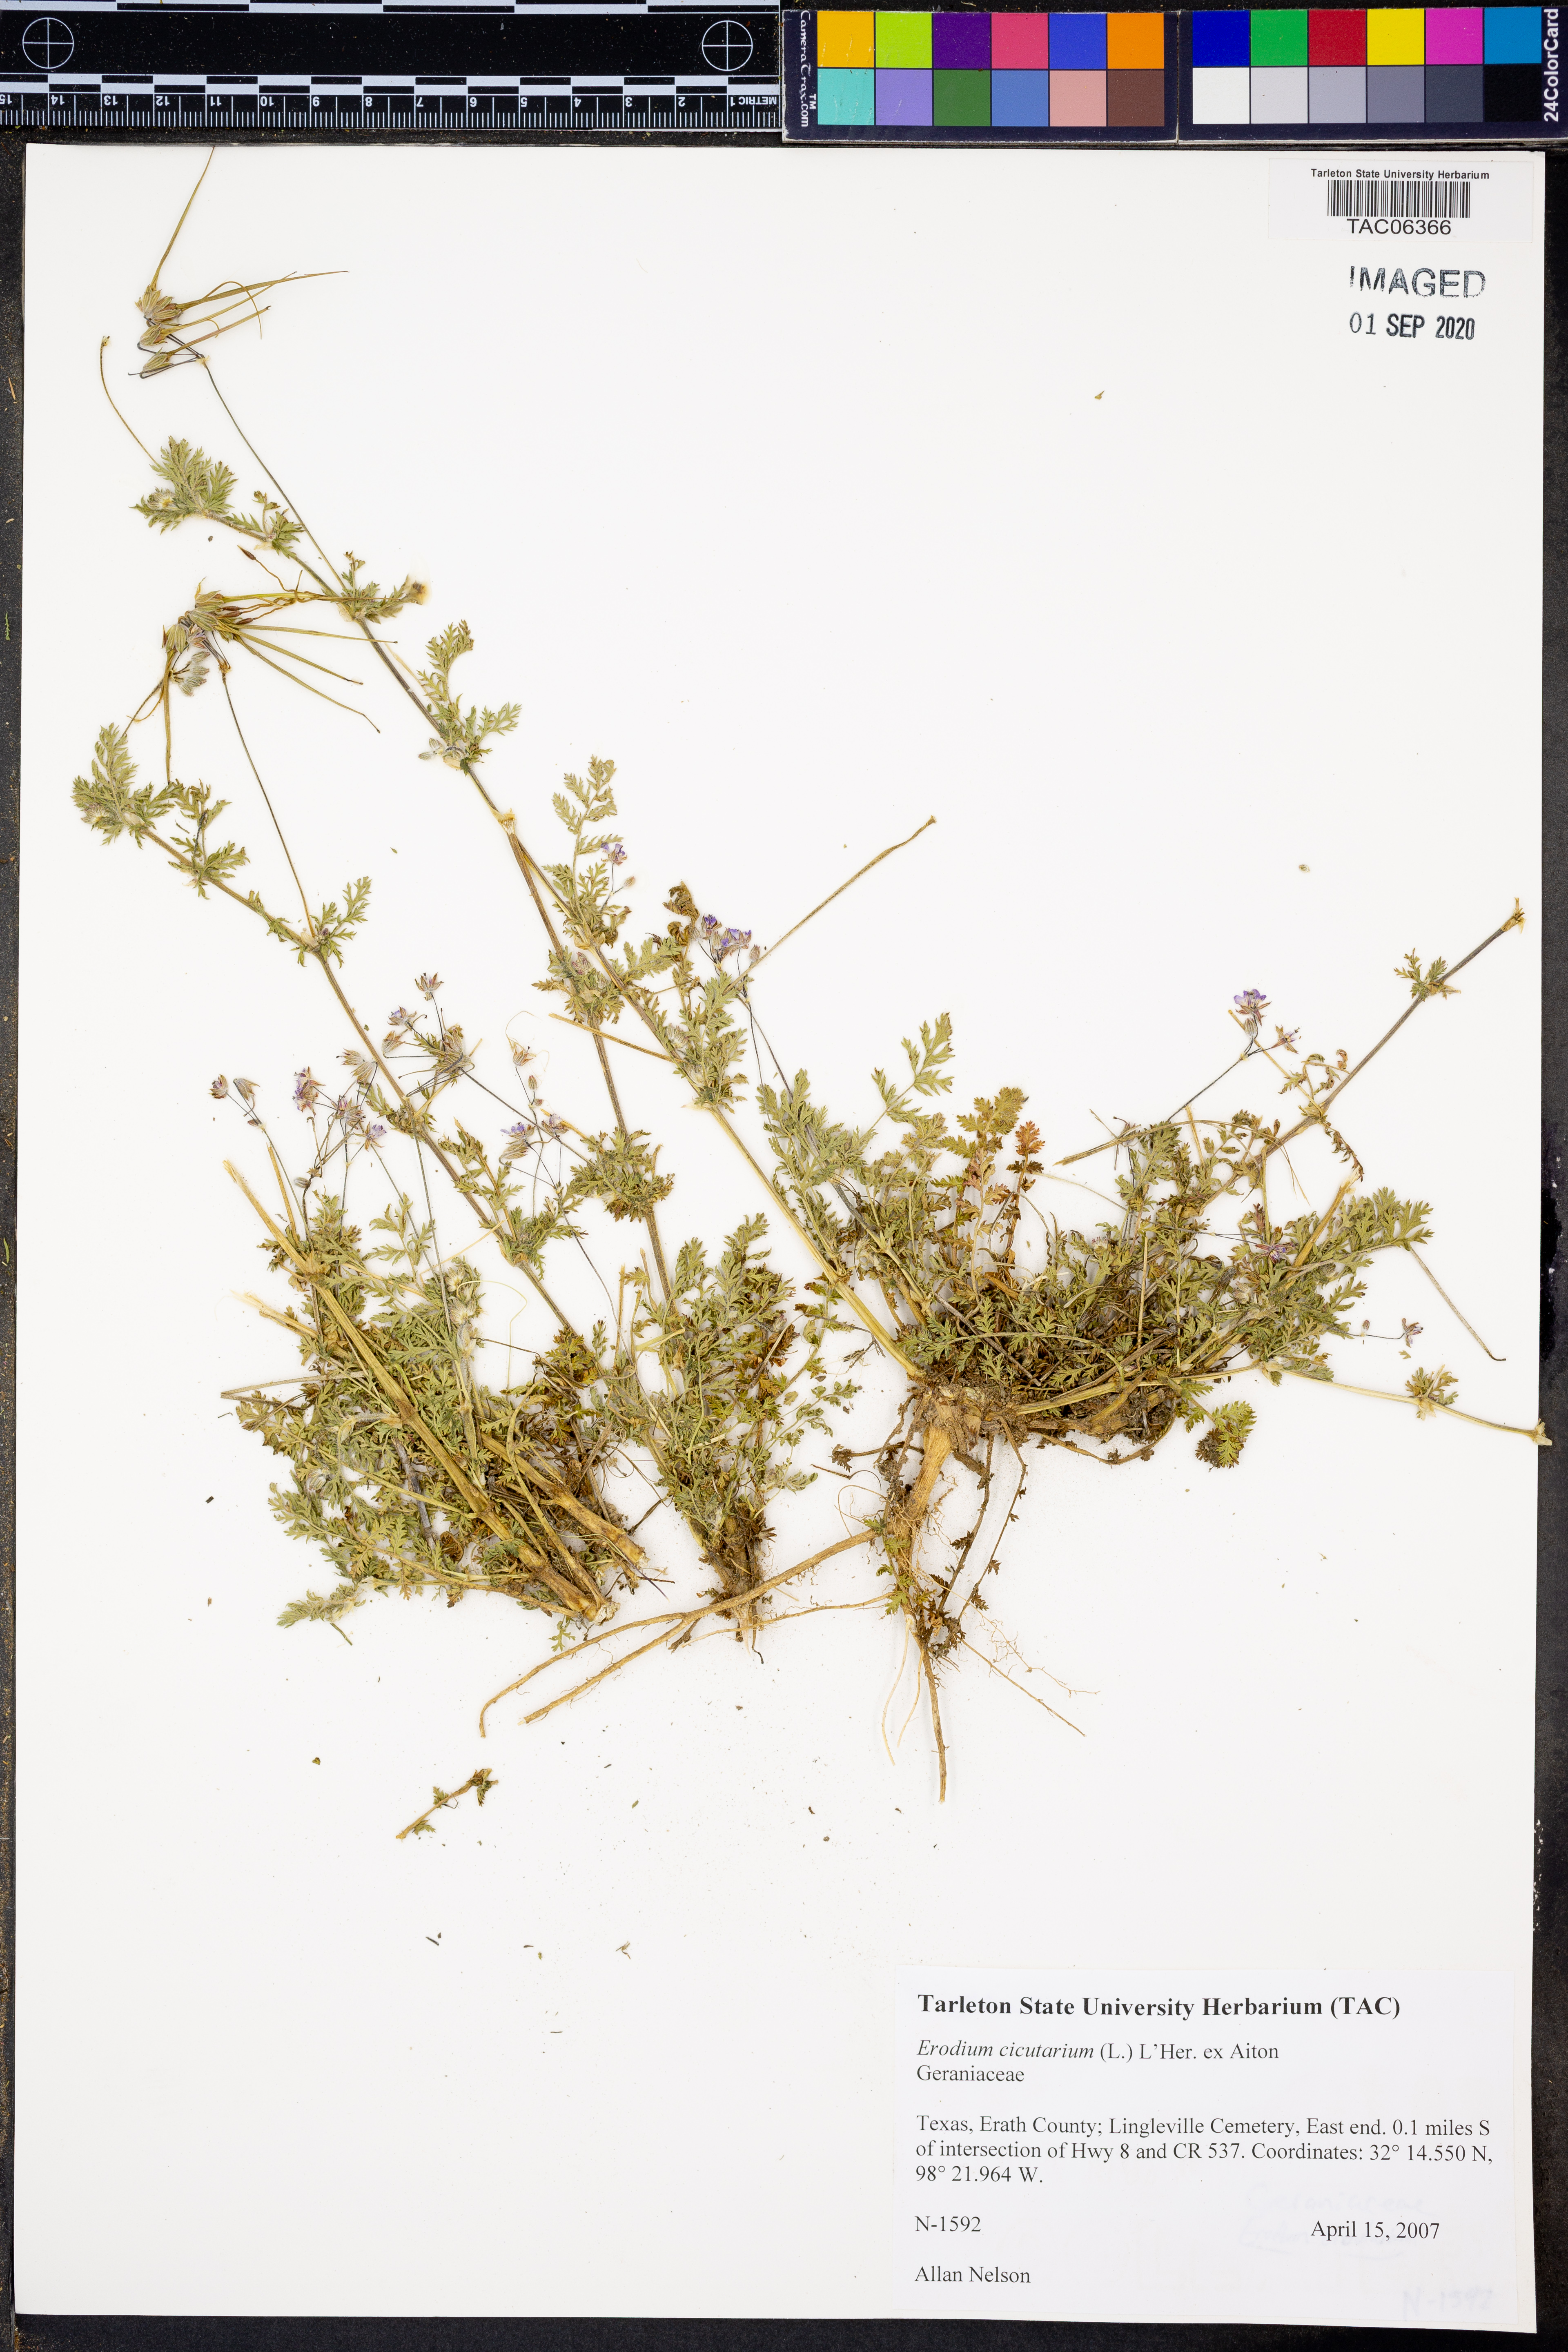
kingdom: Plantae
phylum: Tracheophyta
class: Magnoliopsida
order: Geraniales
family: Geraniaceae
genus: Erodium
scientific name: Erodium cicutarium
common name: Common stork's-bill
